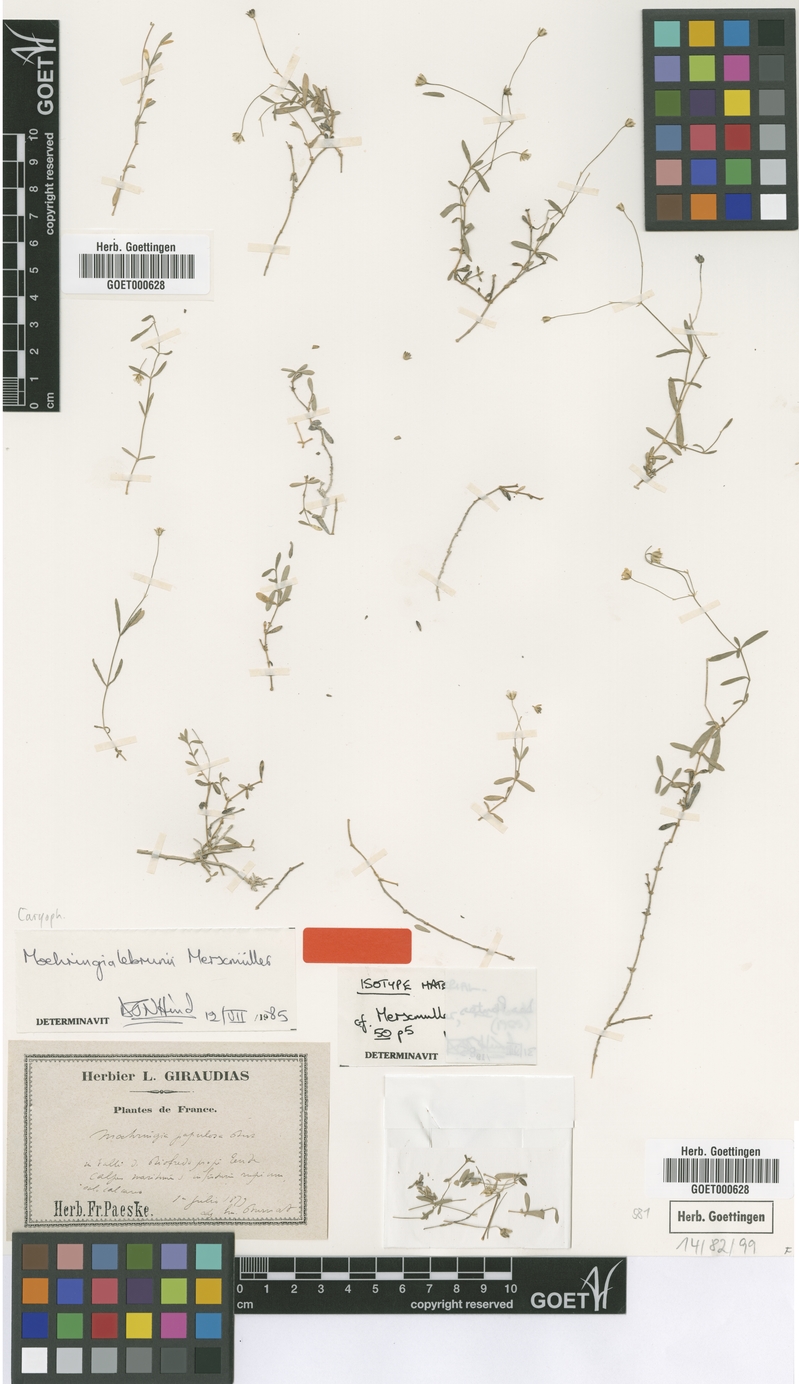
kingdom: Plantae
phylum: Tracheophyta
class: Magnoliopsida
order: Caryophyllales
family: Caryophyllaceae
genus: Moehringia
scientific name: Moehringia lebrunii
